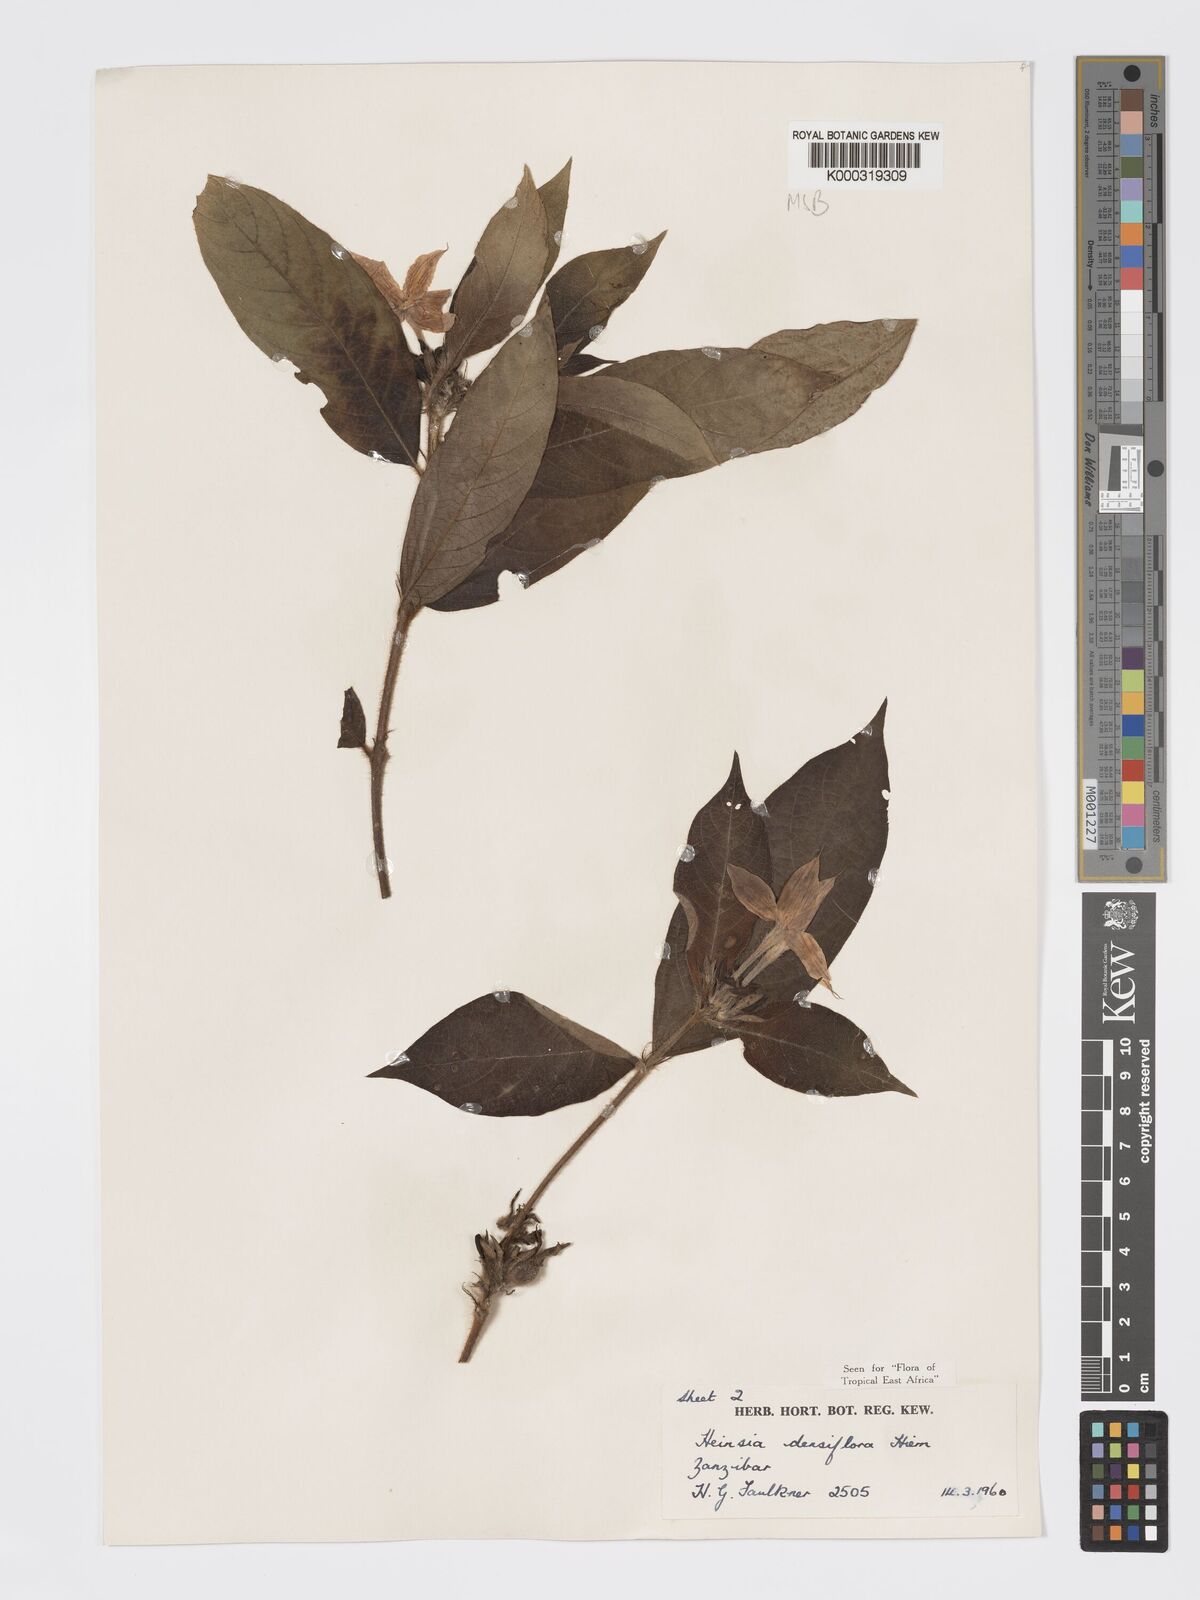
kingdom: Plantae
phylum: Tracheophyta
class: Magnoliopsida
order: Gentianales
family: Rubiaceae
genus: Heinsia
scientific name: Heinsia zanzibarica
